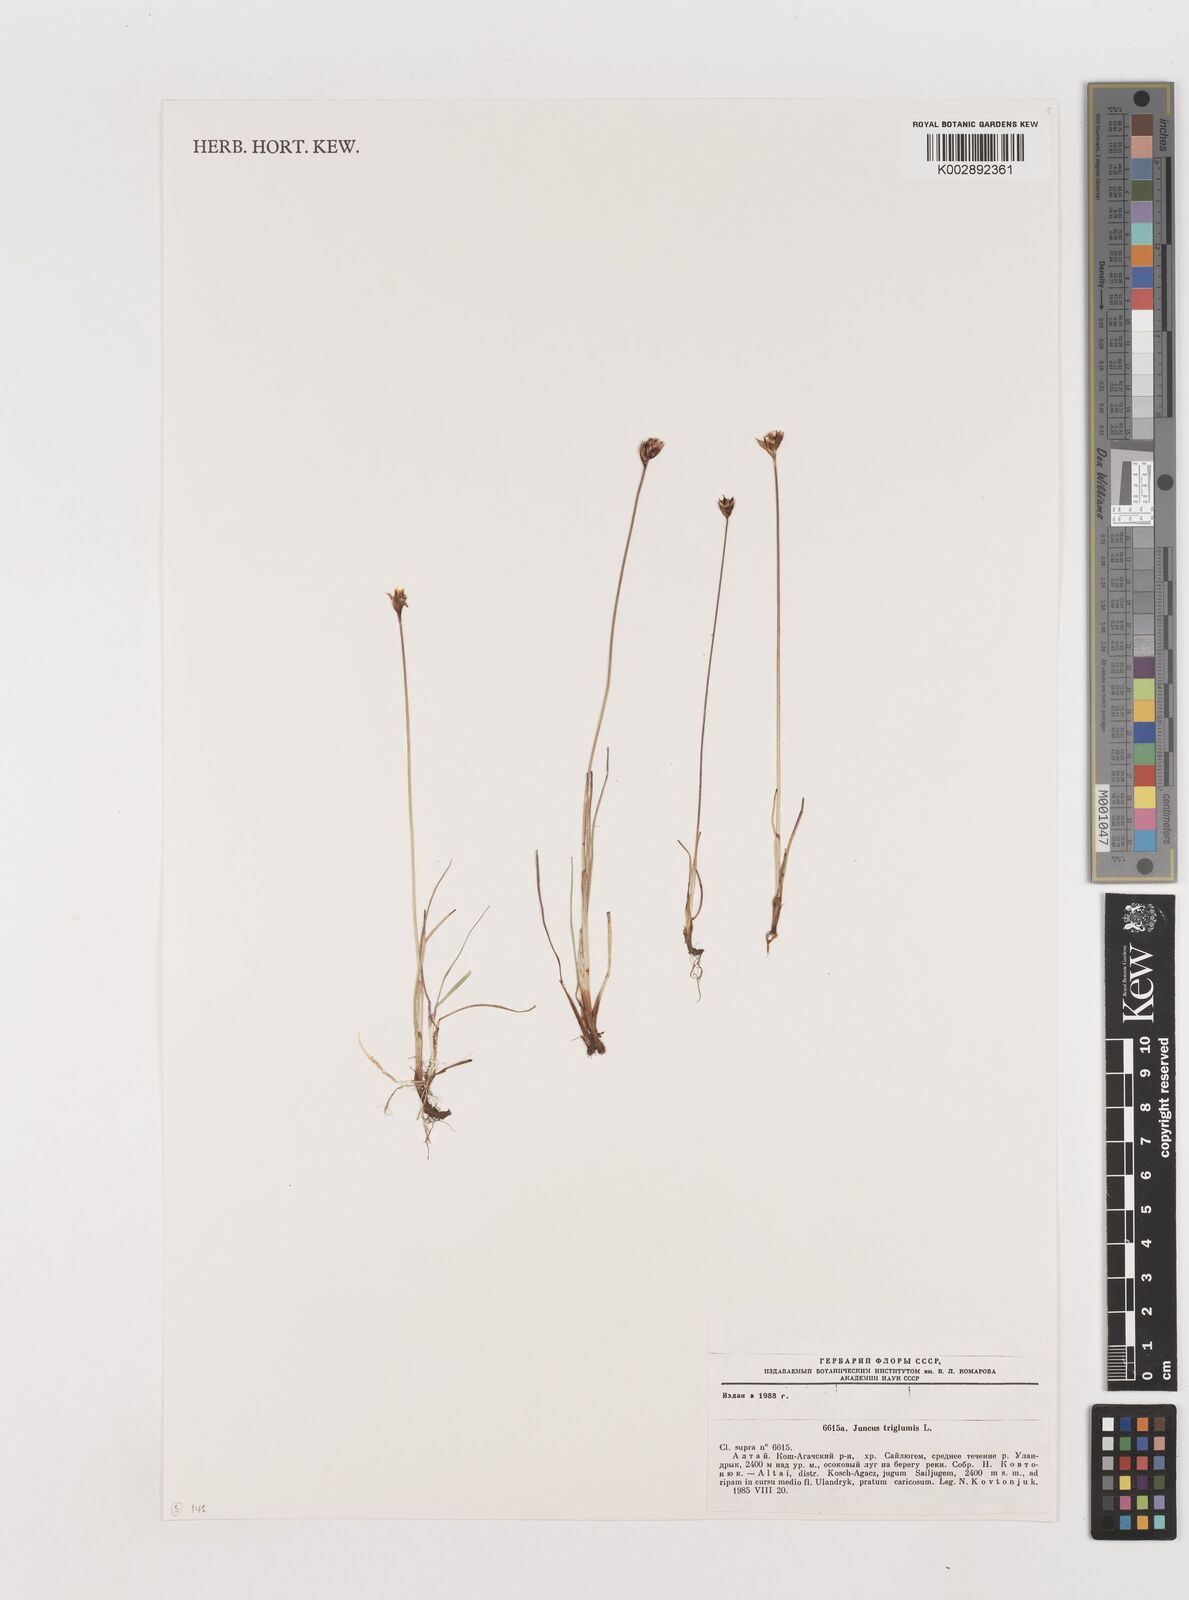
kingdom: Plantae
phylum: Tracheophyta
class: Liliopsida
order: Poales
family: Juncaceae
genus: Juncus
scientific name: Juncus triglumis
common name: Three-flowered rush
